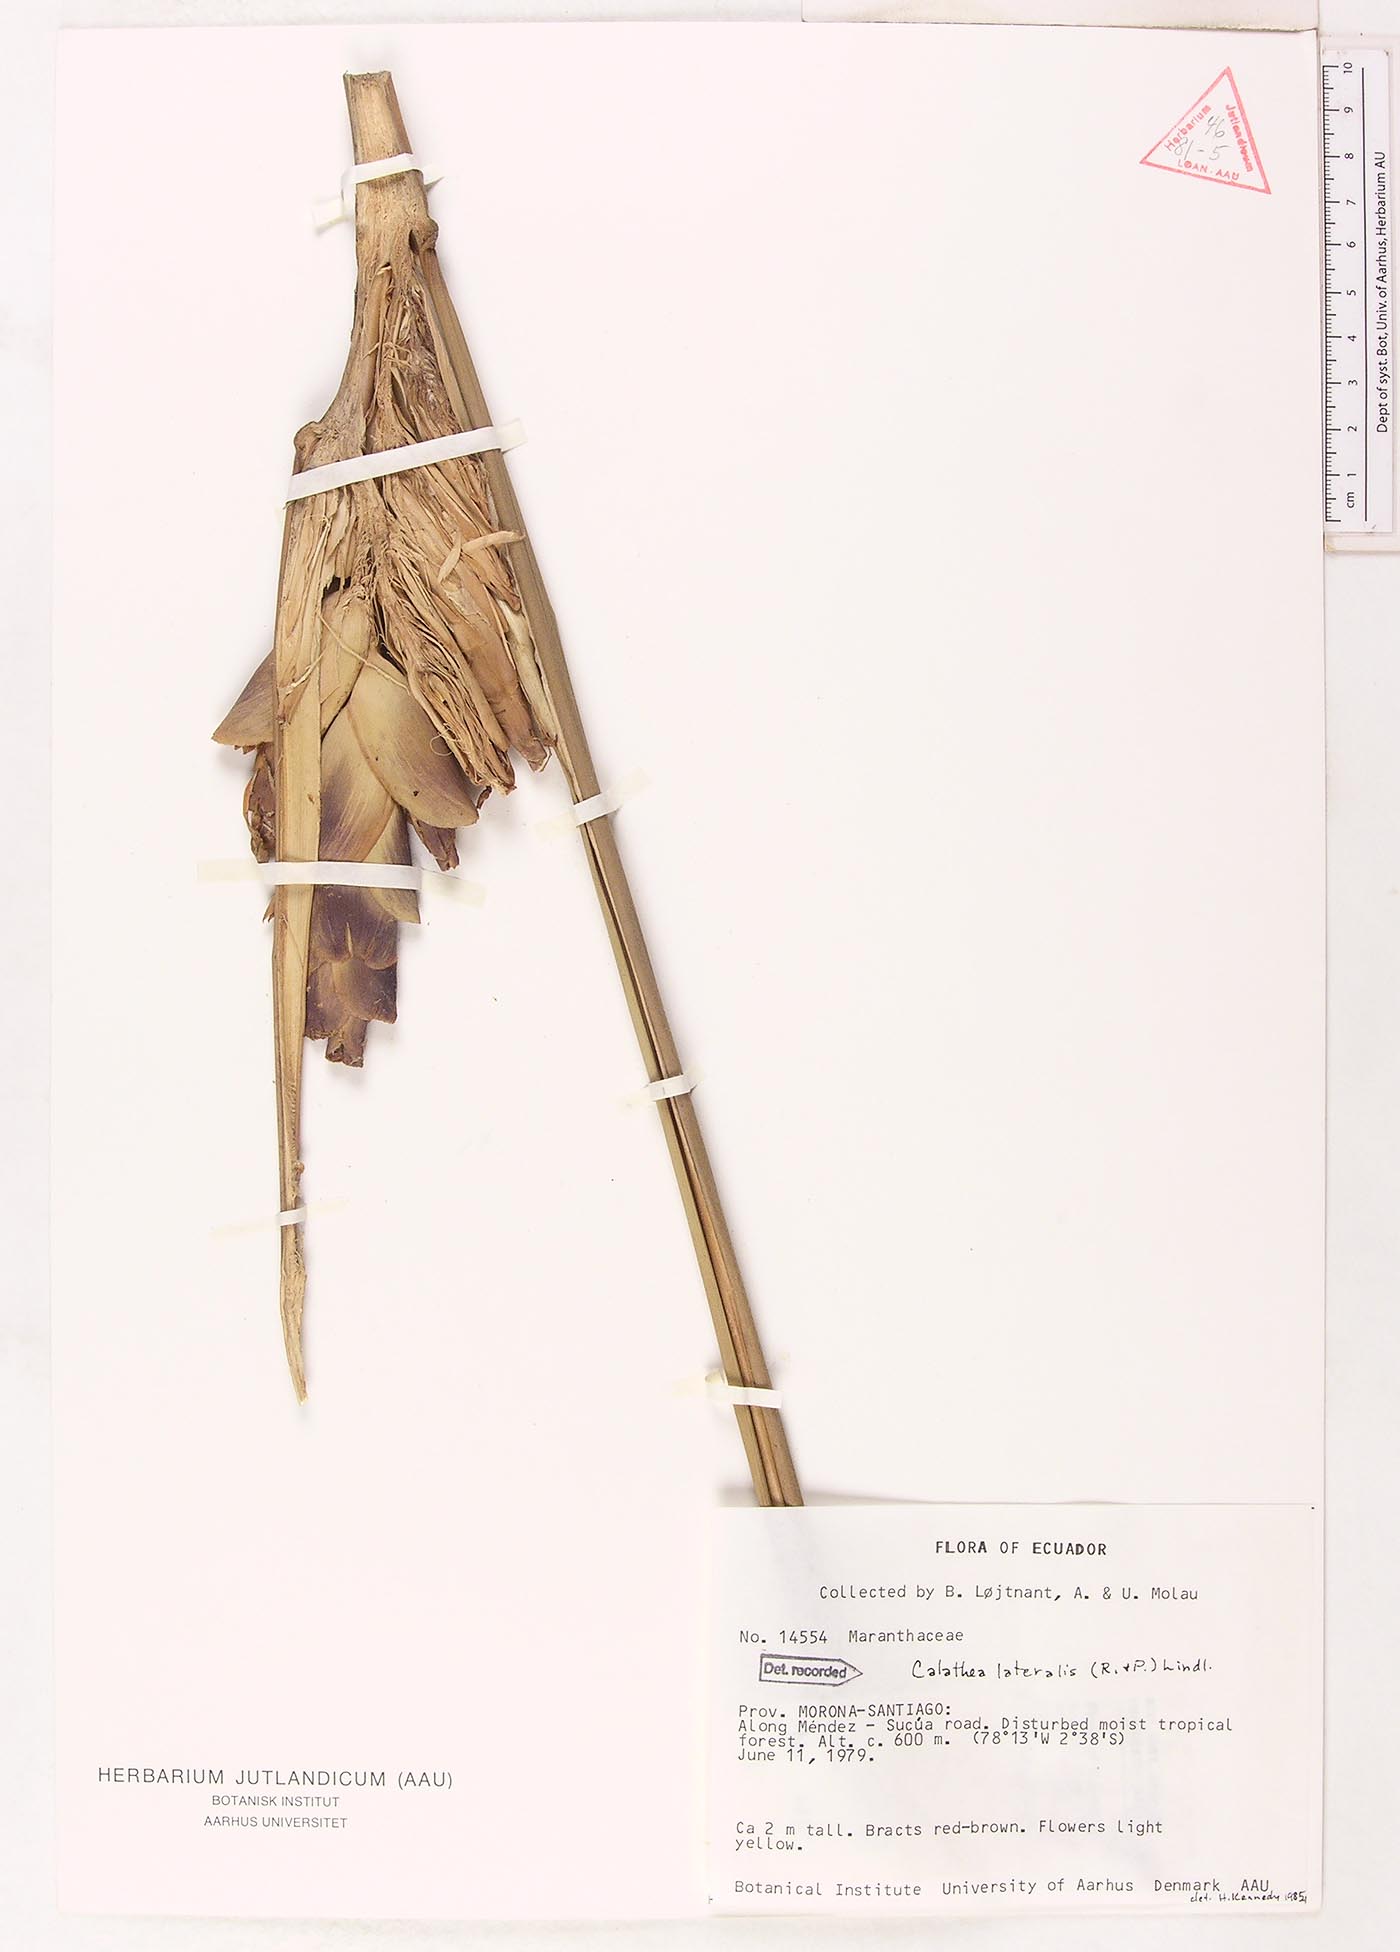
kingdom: Plantae
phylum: Tracheophyta
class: Liliopsida
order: Zingiberales
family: Marantaceae
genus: Calathea
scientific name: Calathea lateralis
